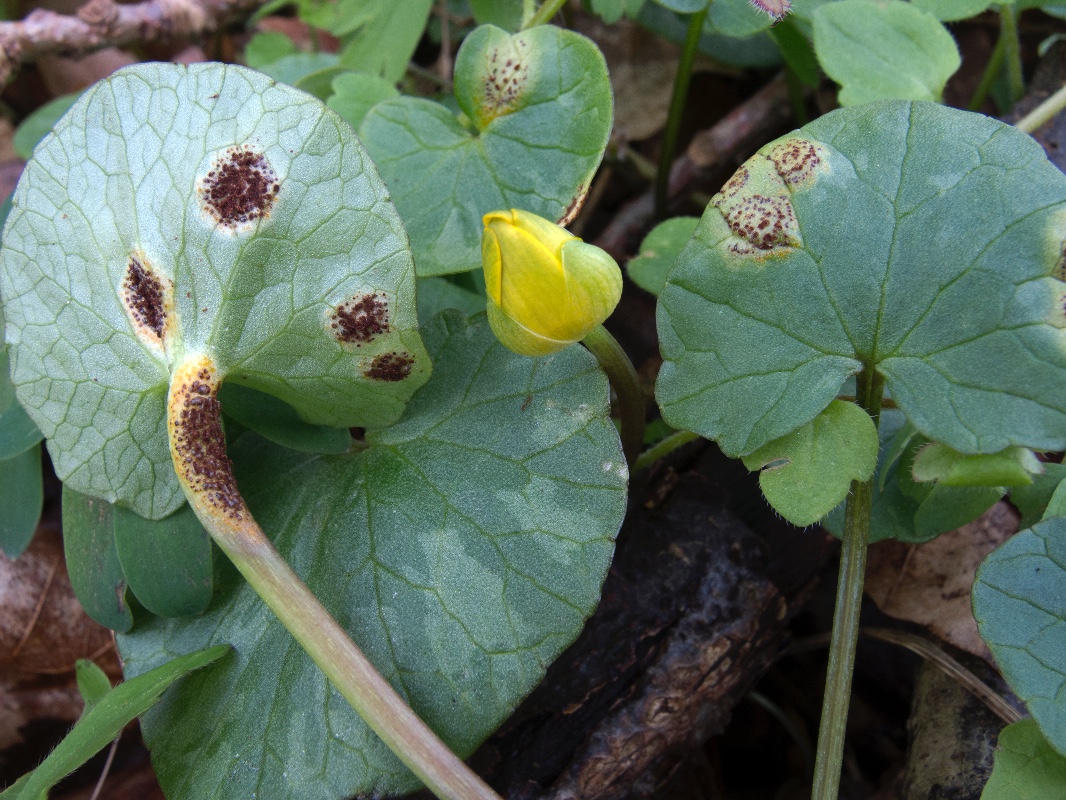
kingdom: Fungi
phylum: Basidiomycota
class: Pucciniomycetes
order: Pucciniales
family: Pucciniaceae
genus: Uromyces
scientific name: Uromyces ficariae
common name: vorterod-encellerust
